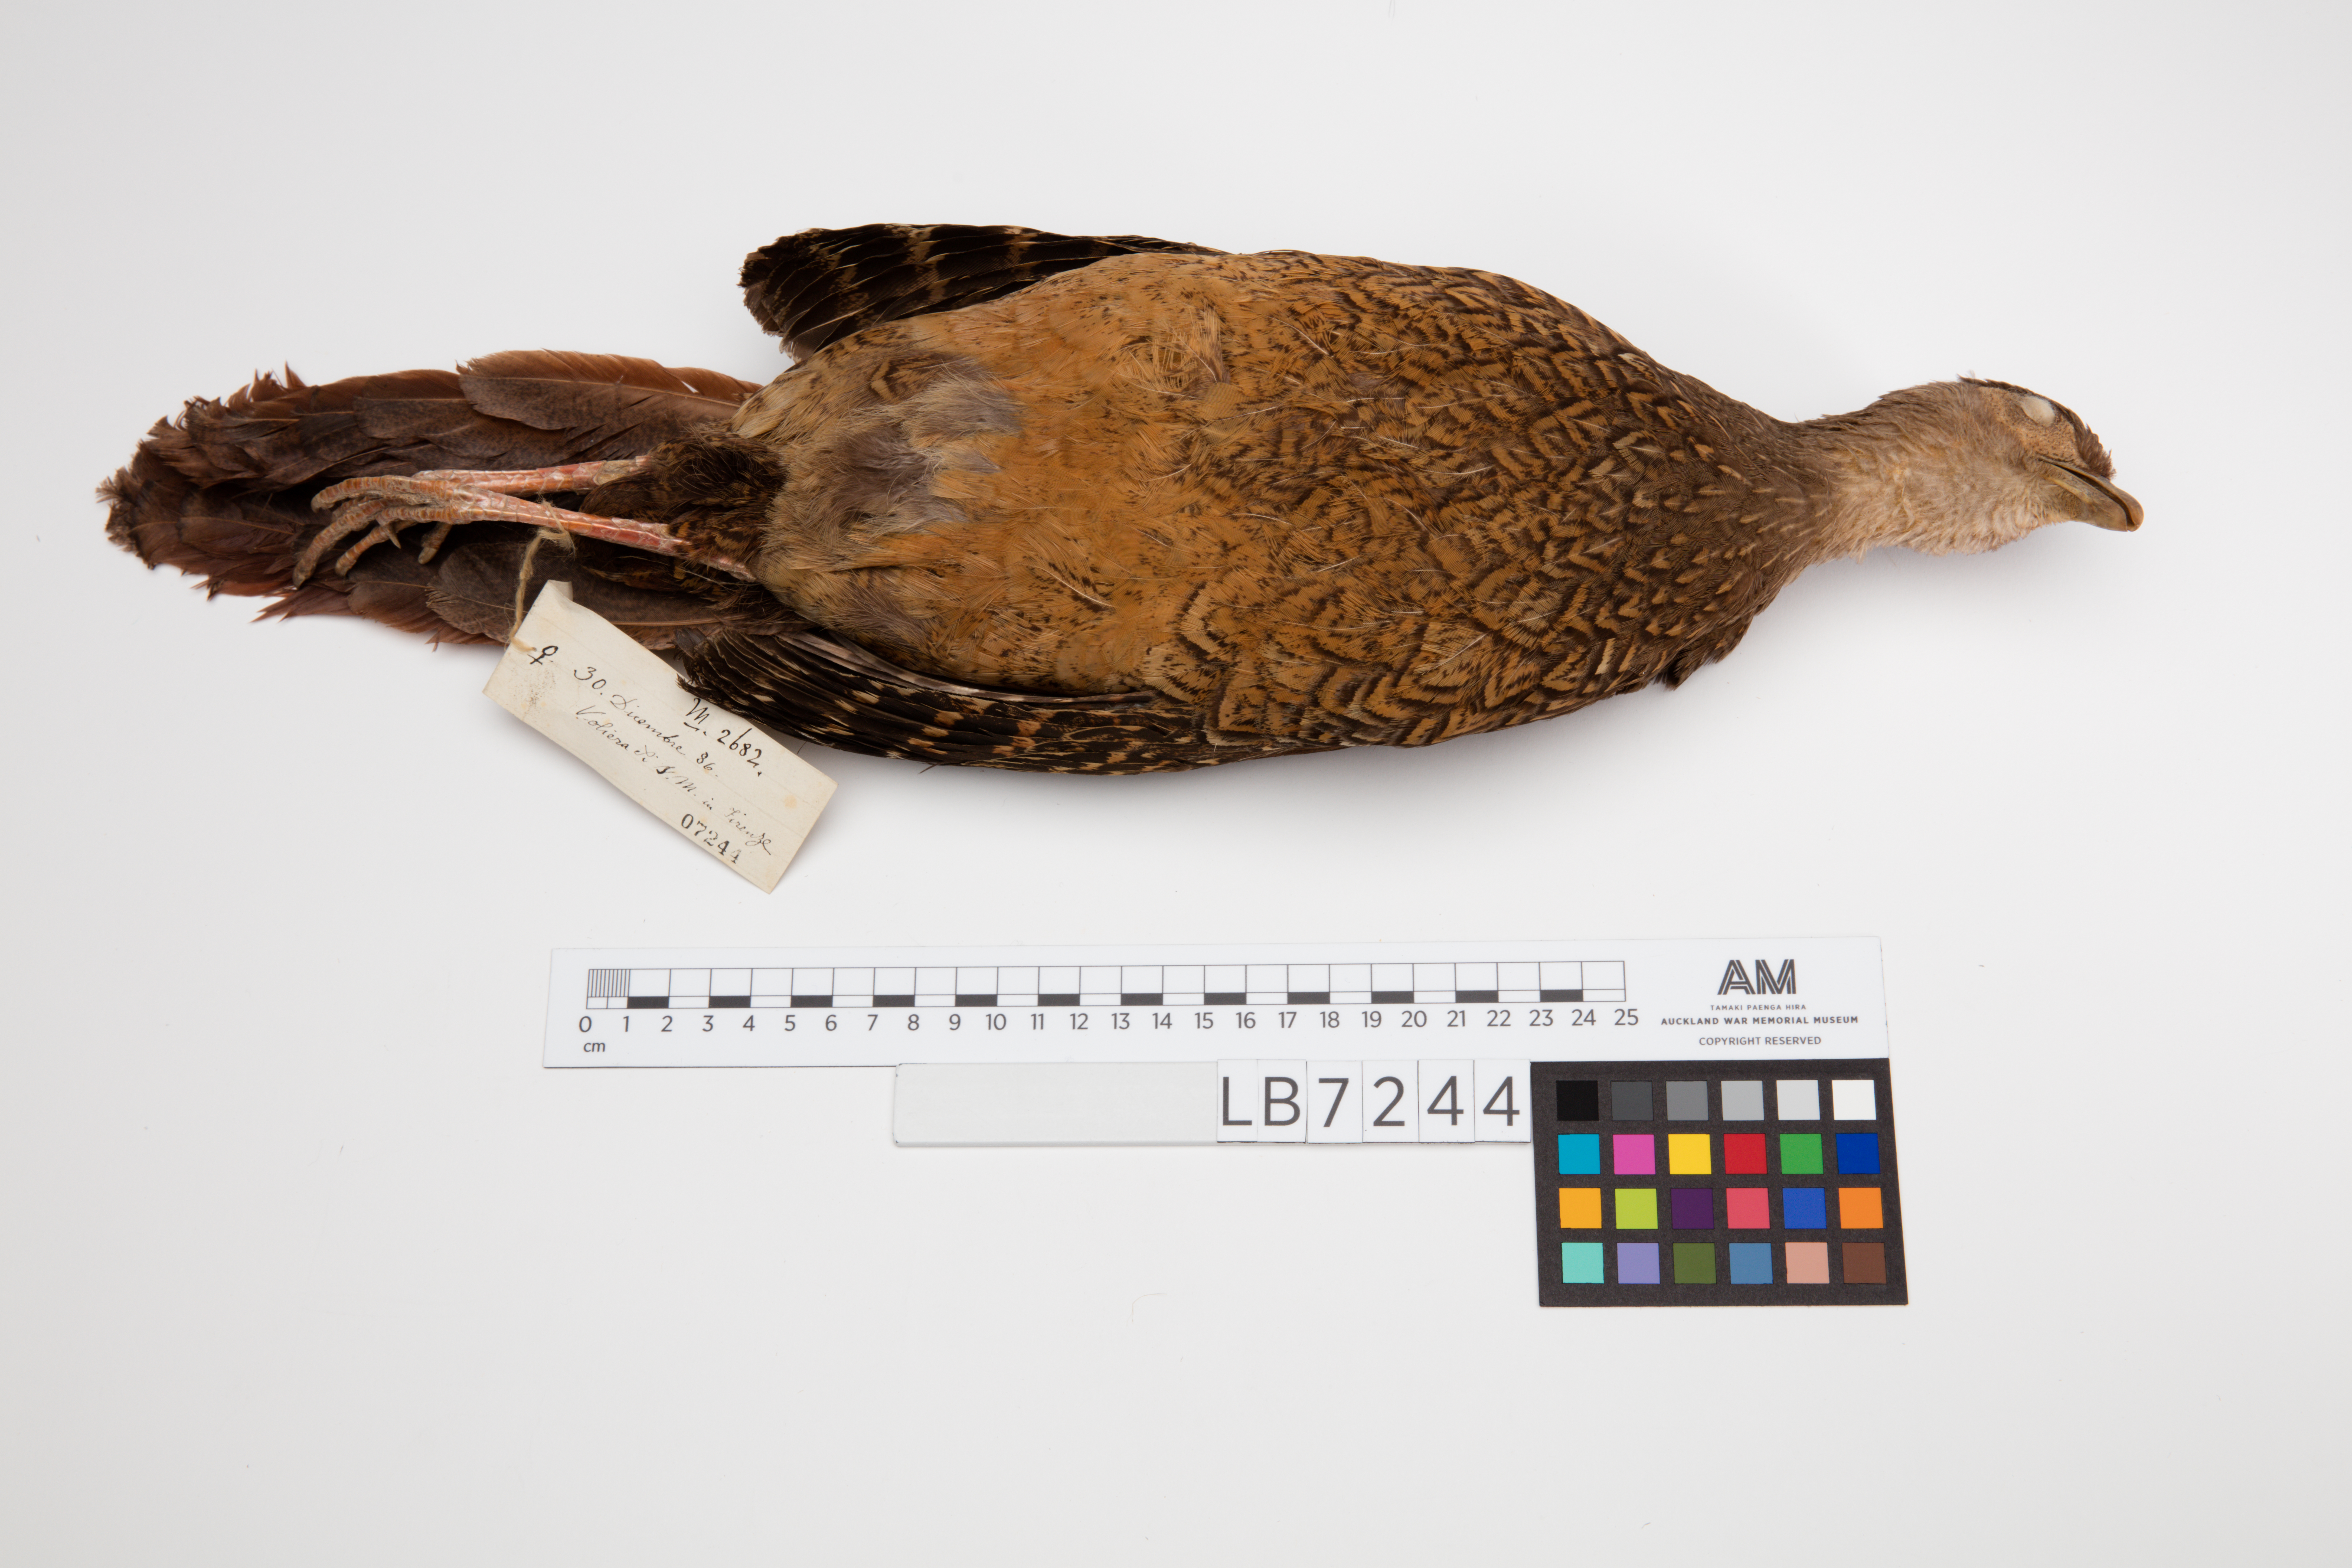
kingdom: Animalia
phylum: Chordata
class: Aves
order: Galliformes
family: Phasianidae
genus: Lophura
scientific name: Lophura swinhoii
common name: Swinhoe's pheasant
